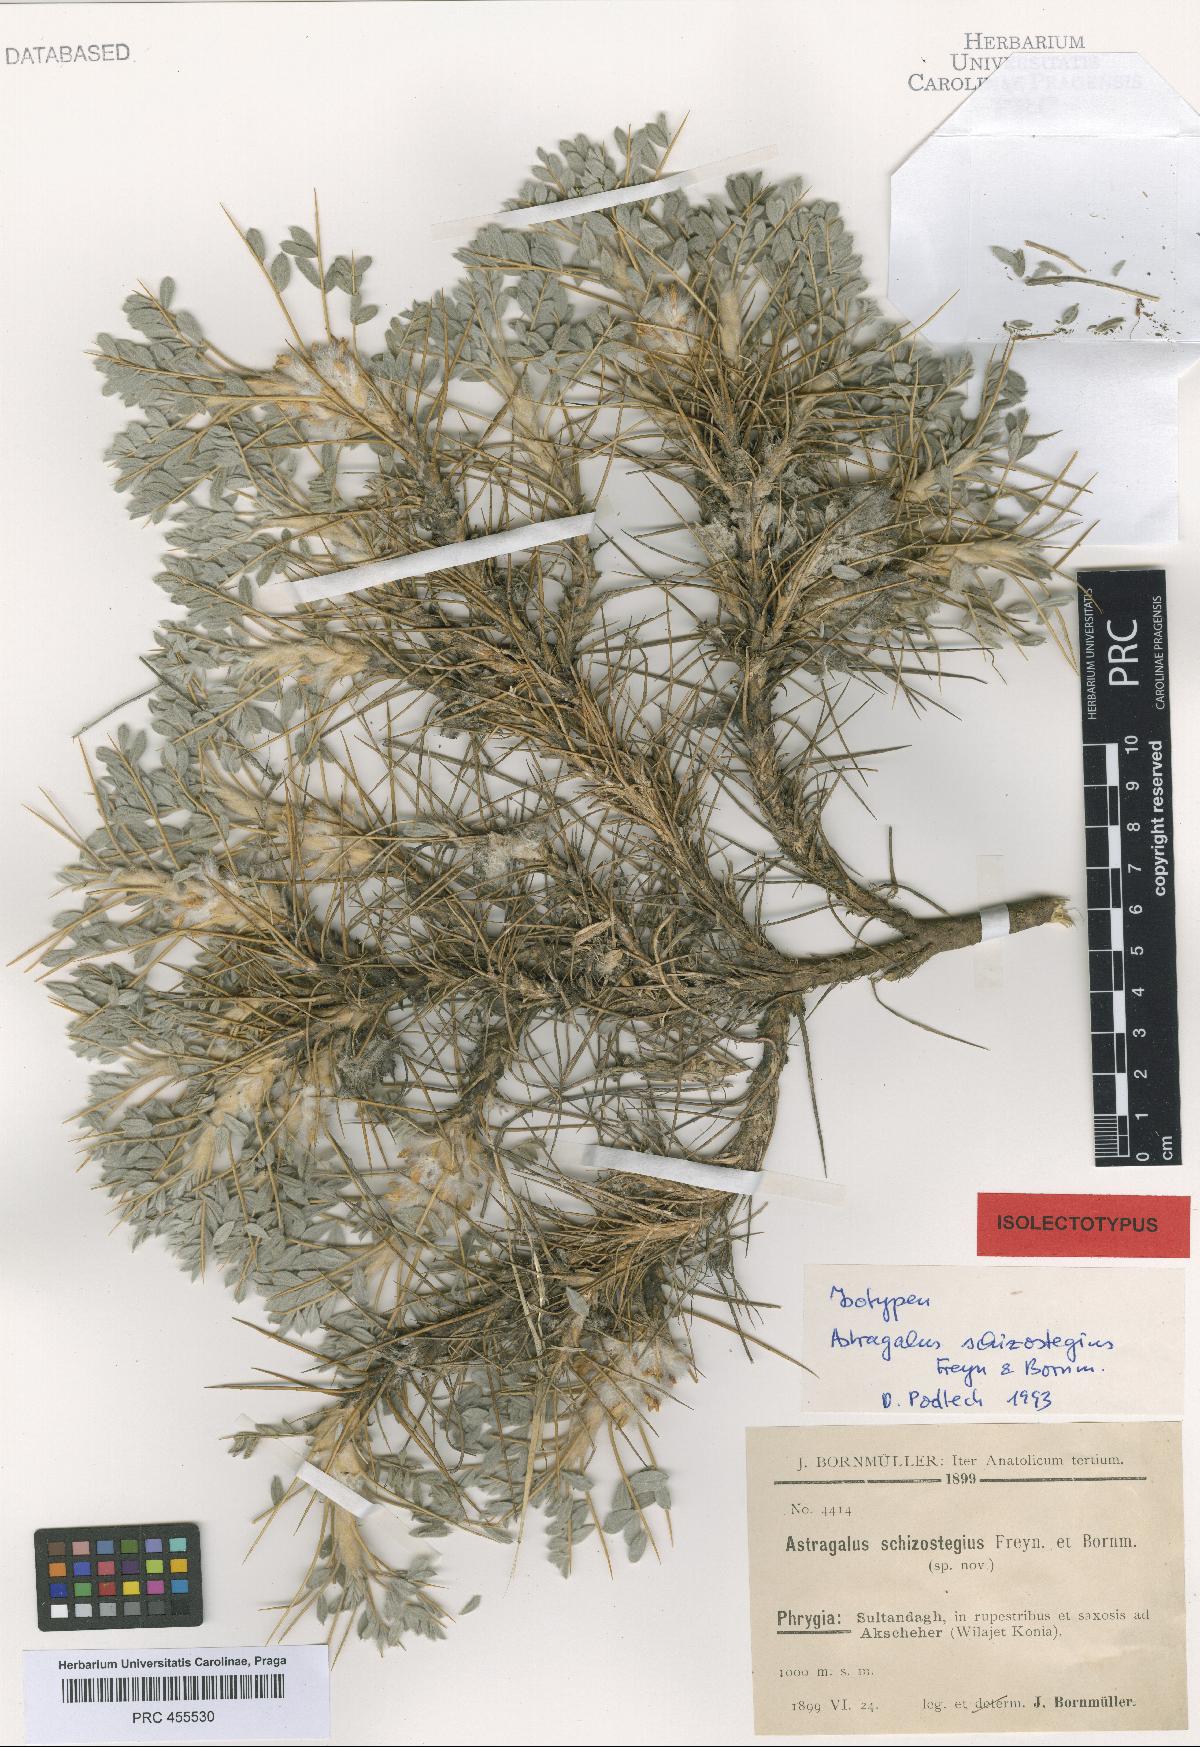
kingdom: Plantae
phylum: Tracheophyta
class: Magnoliopsida
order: Fabales
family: Fabaceae
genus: Astragalus
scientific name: Astragalus tmoleus
